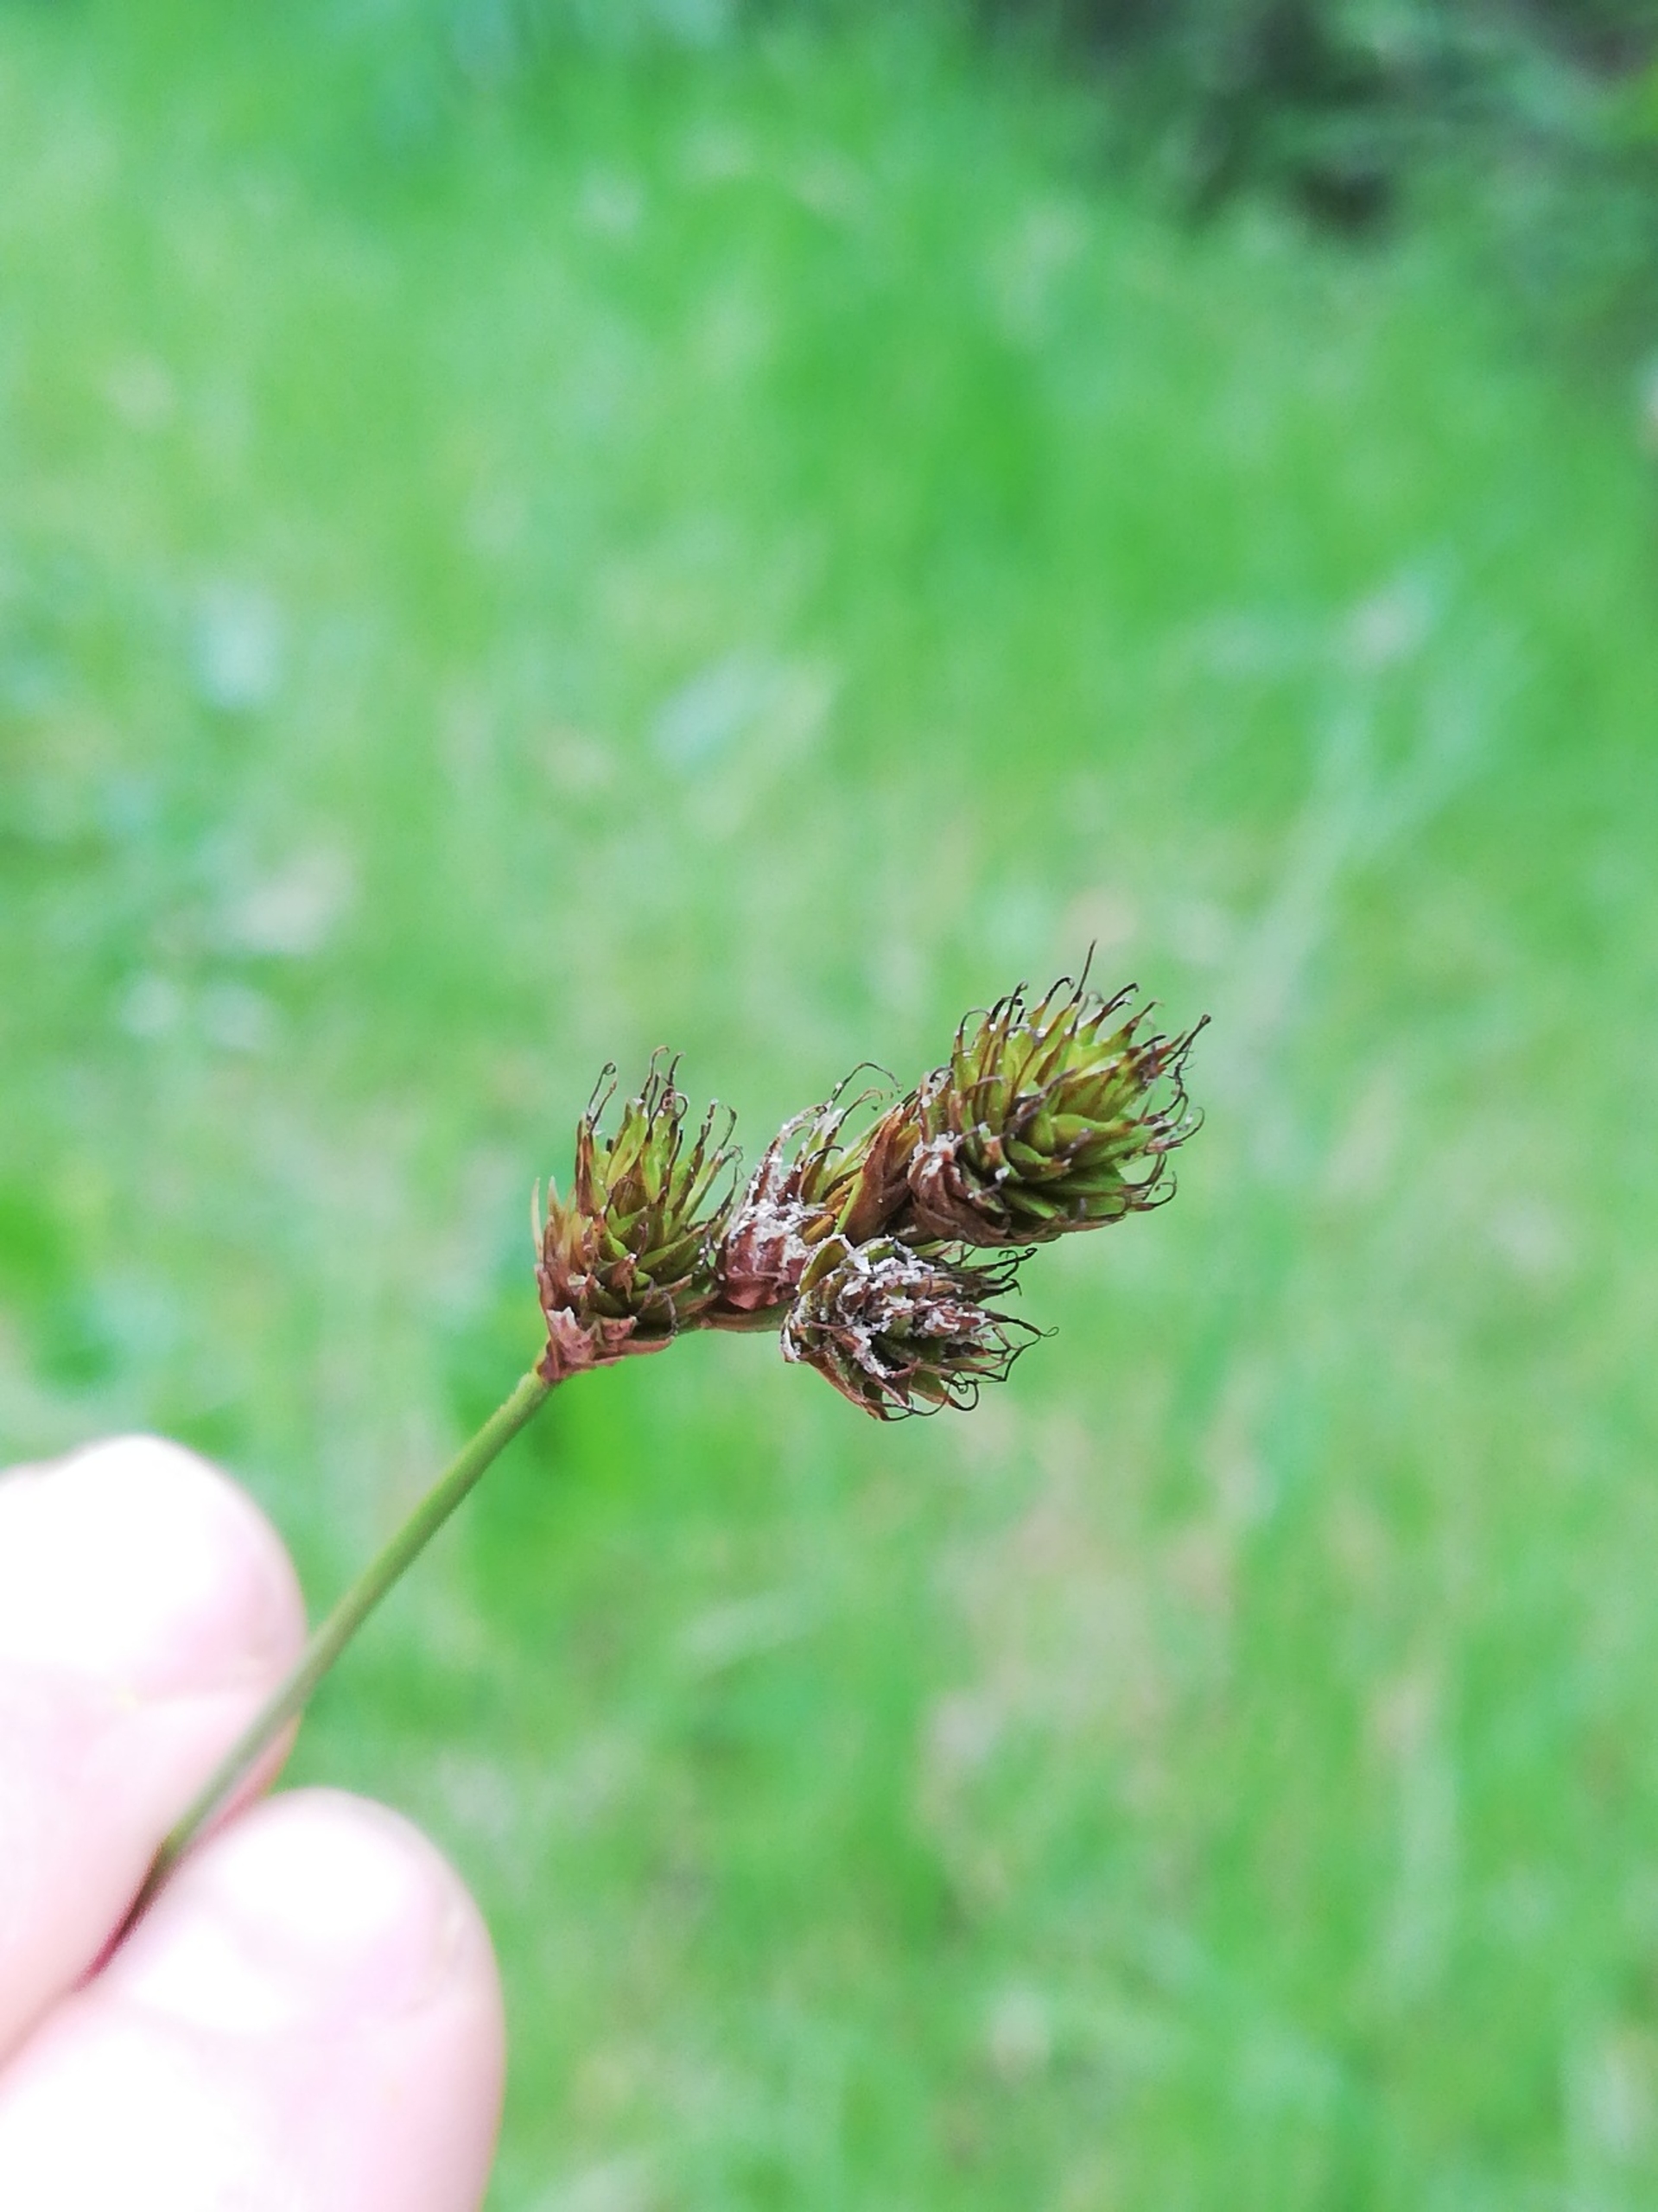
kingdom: Plantae
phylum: Tracheophyta
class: Liliopsida
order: Poales
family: Cyperaceae
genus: Carex
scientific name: Carex leporina
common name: Hare-star
